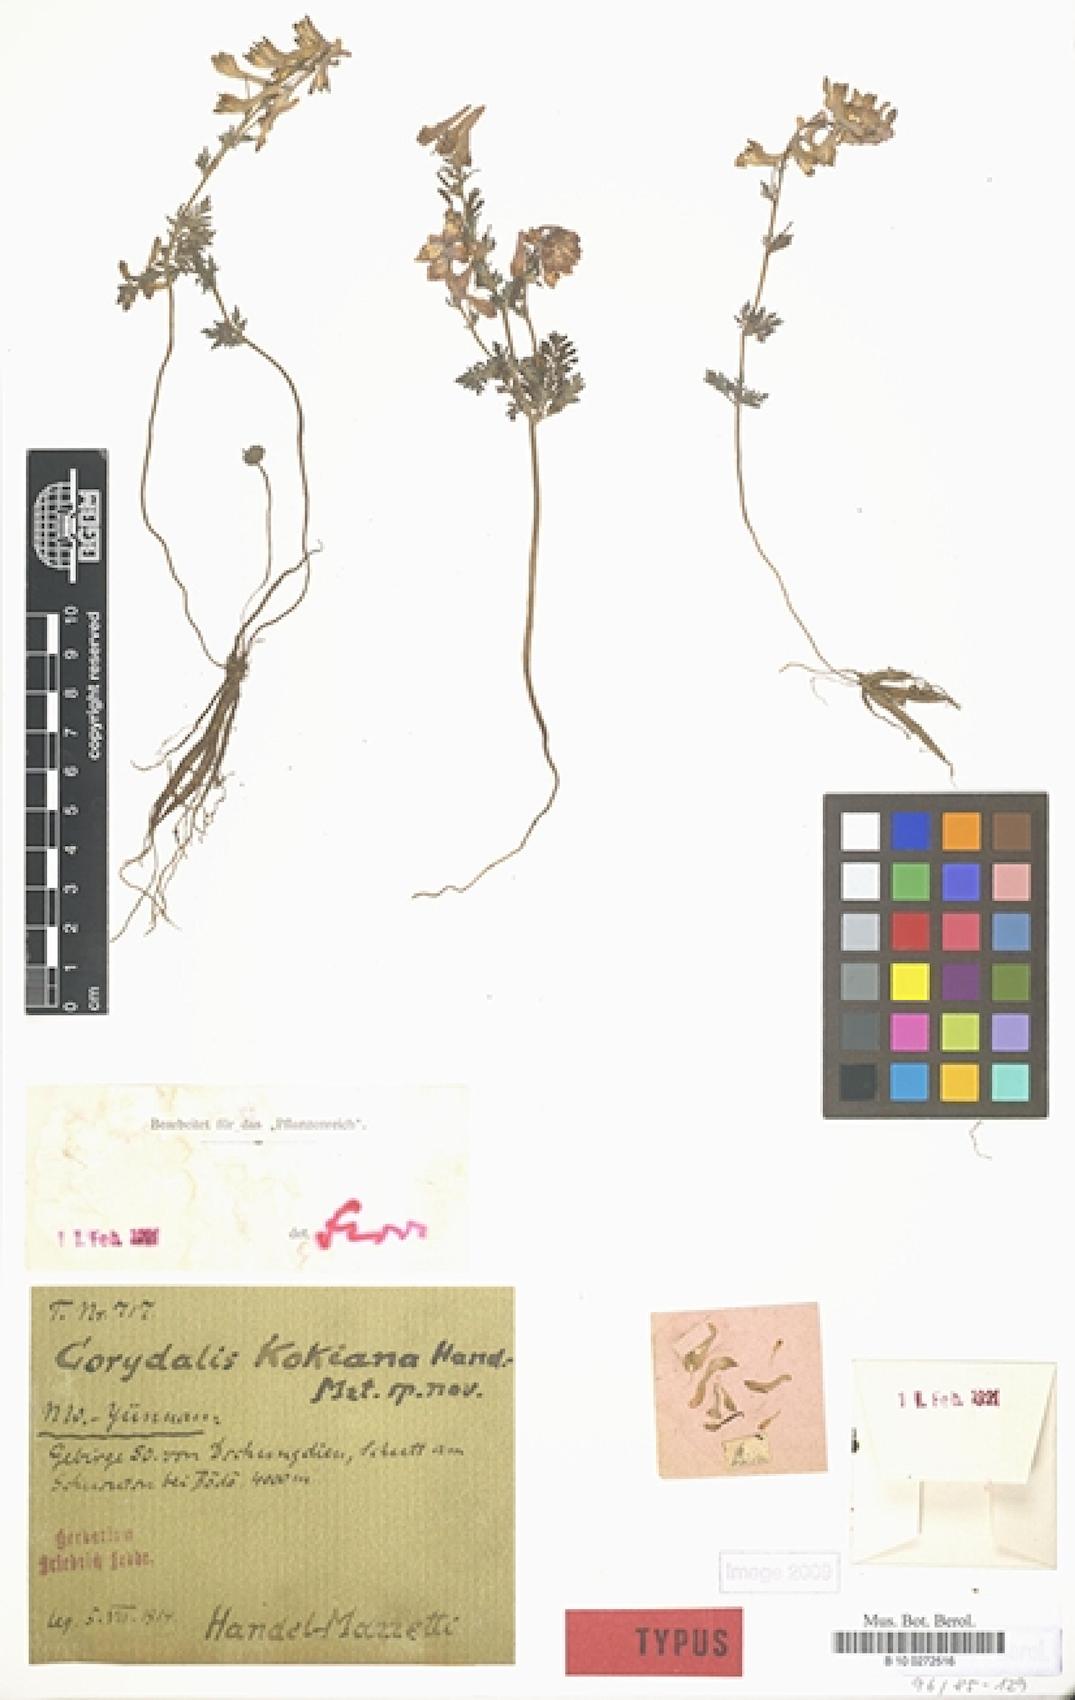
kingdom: Plantae
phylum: Tracheophyta
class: Magnoliopsida
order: Ranunculales
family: Papaveraceae
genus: Corydalis
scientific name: Corydalis kokiana
